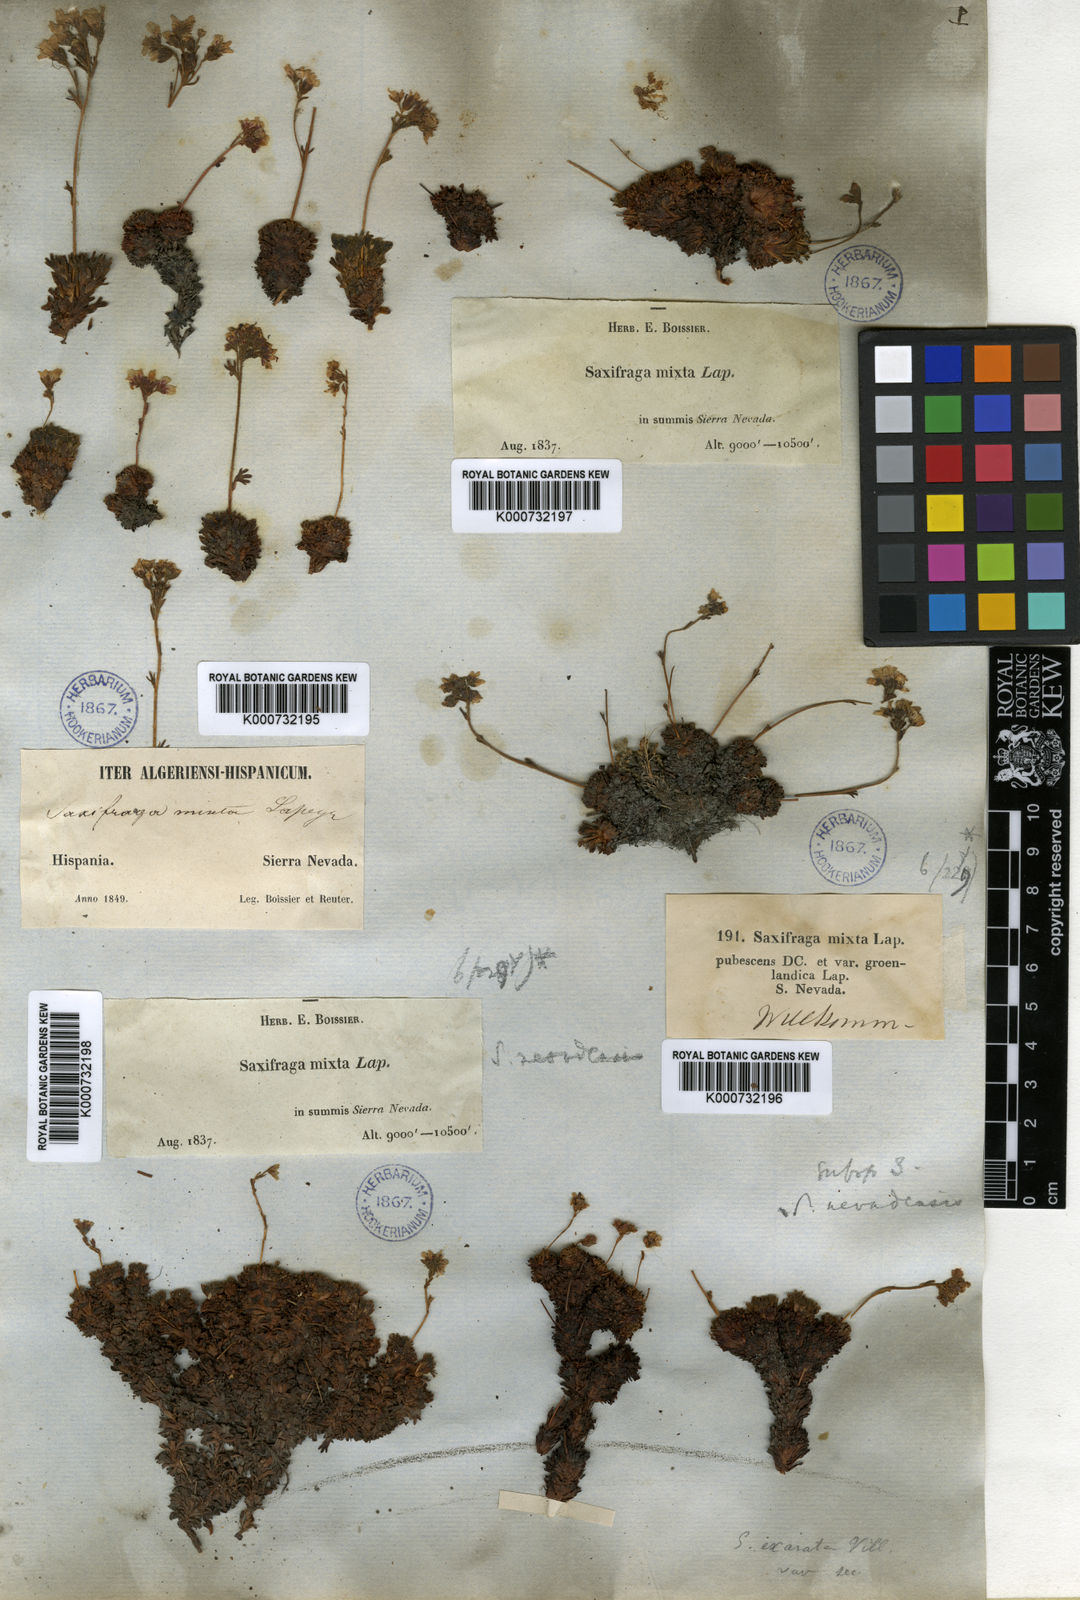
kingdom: Plantae
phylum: Tracheophyta
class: Magnoliopsida
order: Saxifragales
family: Saxifragaceae
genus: Saxifraga
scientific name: Saxifraga nevadensis
